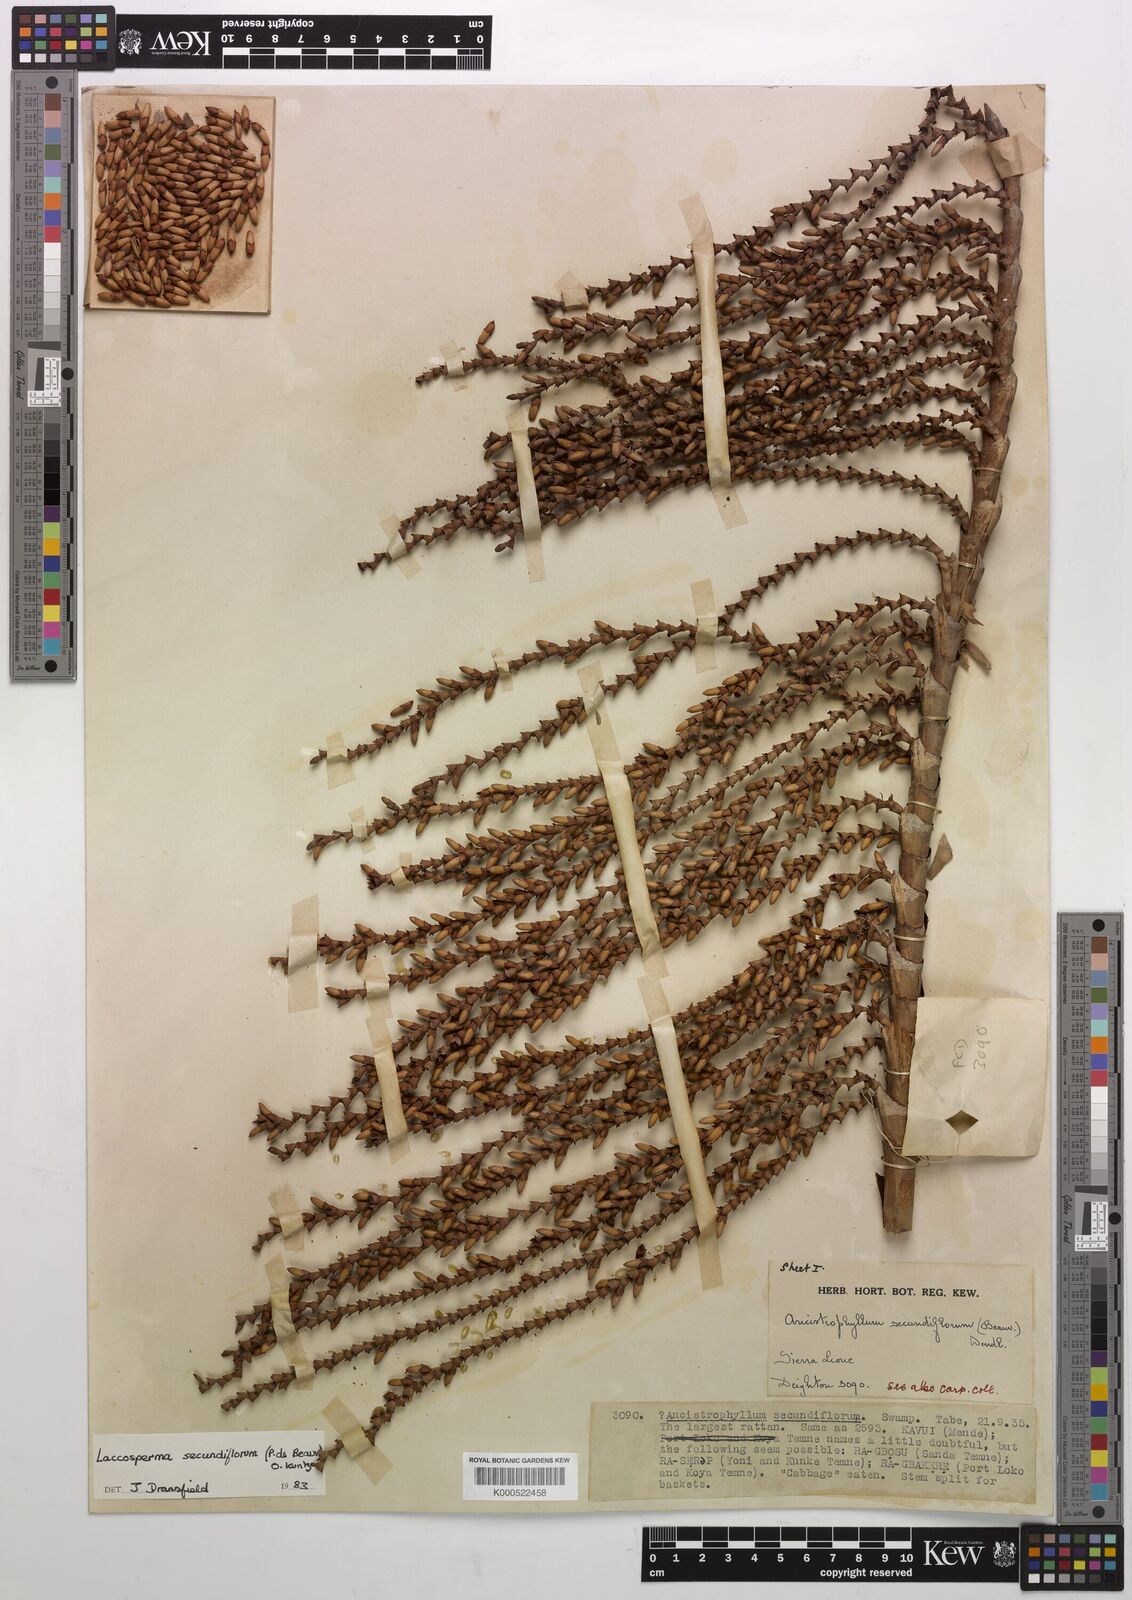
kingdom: Plantae
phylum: Tracheophyta
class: Liliopsida
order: Arecales
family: Arecaceae
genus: Laccosperma
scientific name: Laccosperma secundiflorum
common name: Rattan
